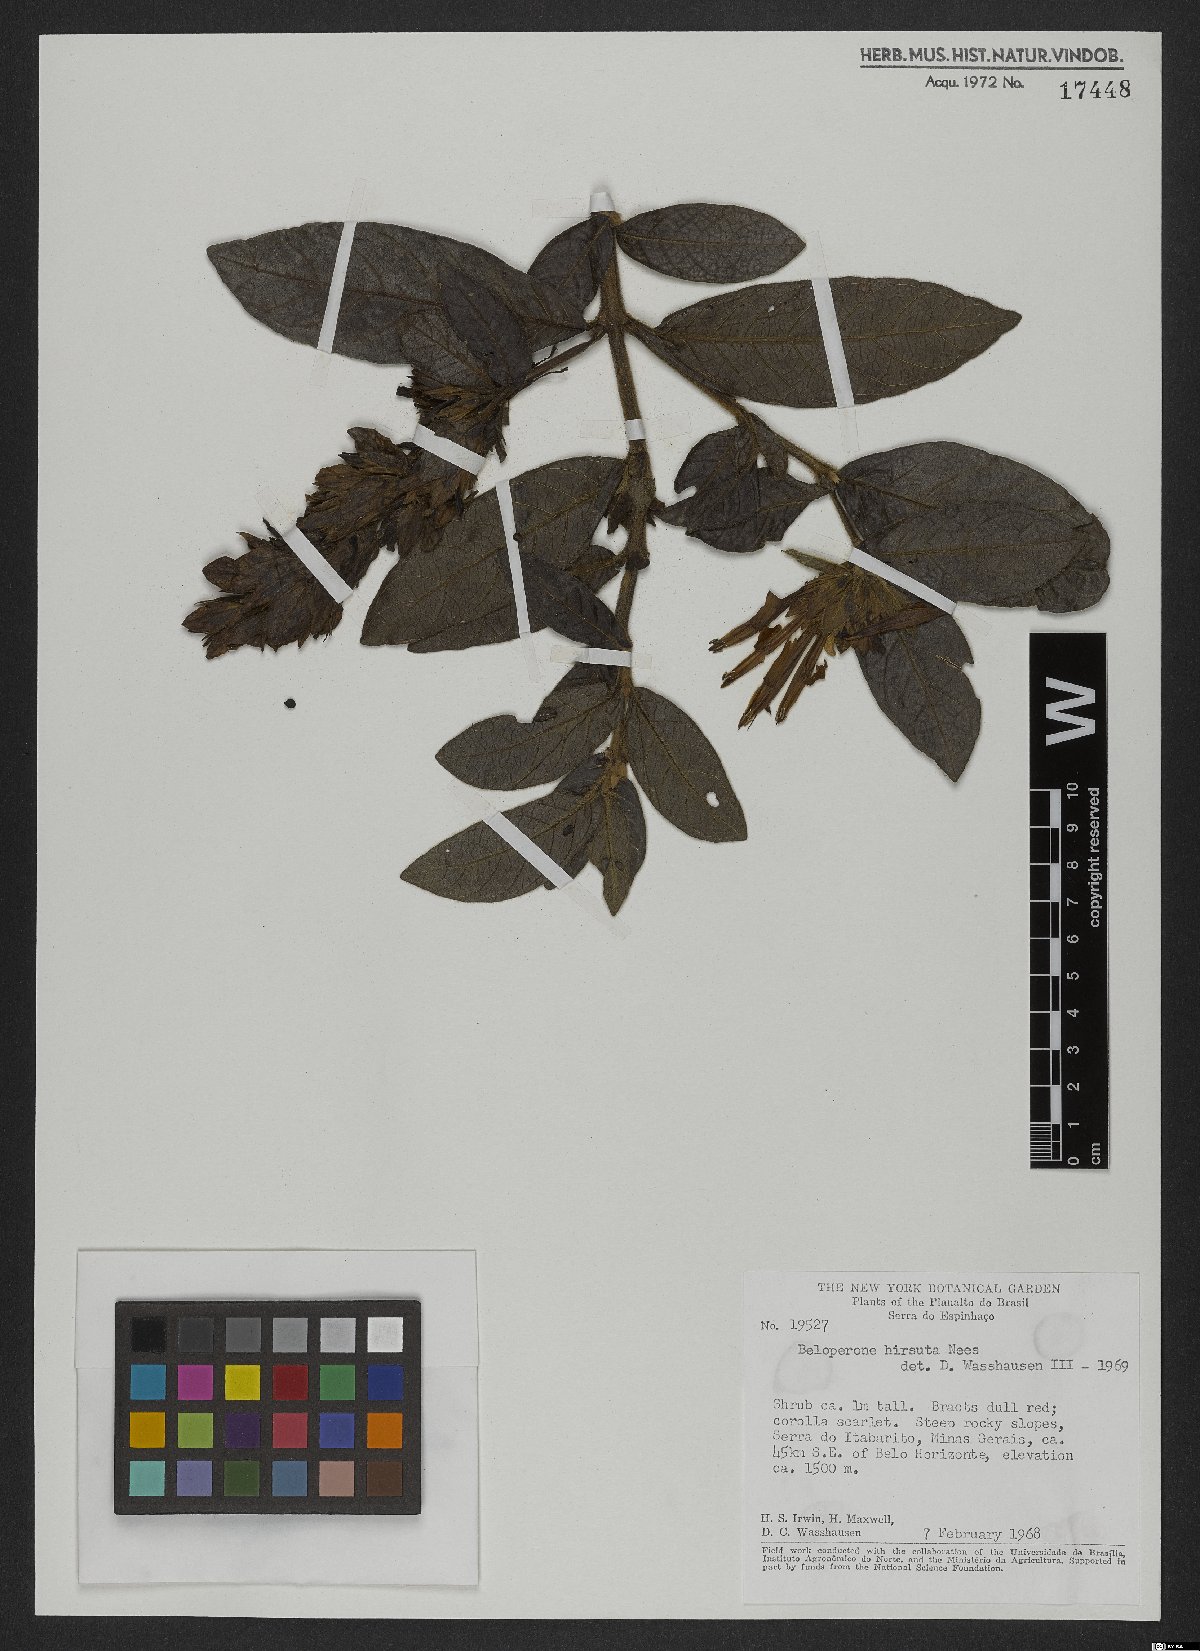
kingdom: Plantae
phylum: Tracheophyta
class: Magnoliopsida
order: Gentianales
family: Rubiaceae
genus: Gonzalagunia
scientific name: Gonzalagunia hirsuta
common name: Mata de mariposa
